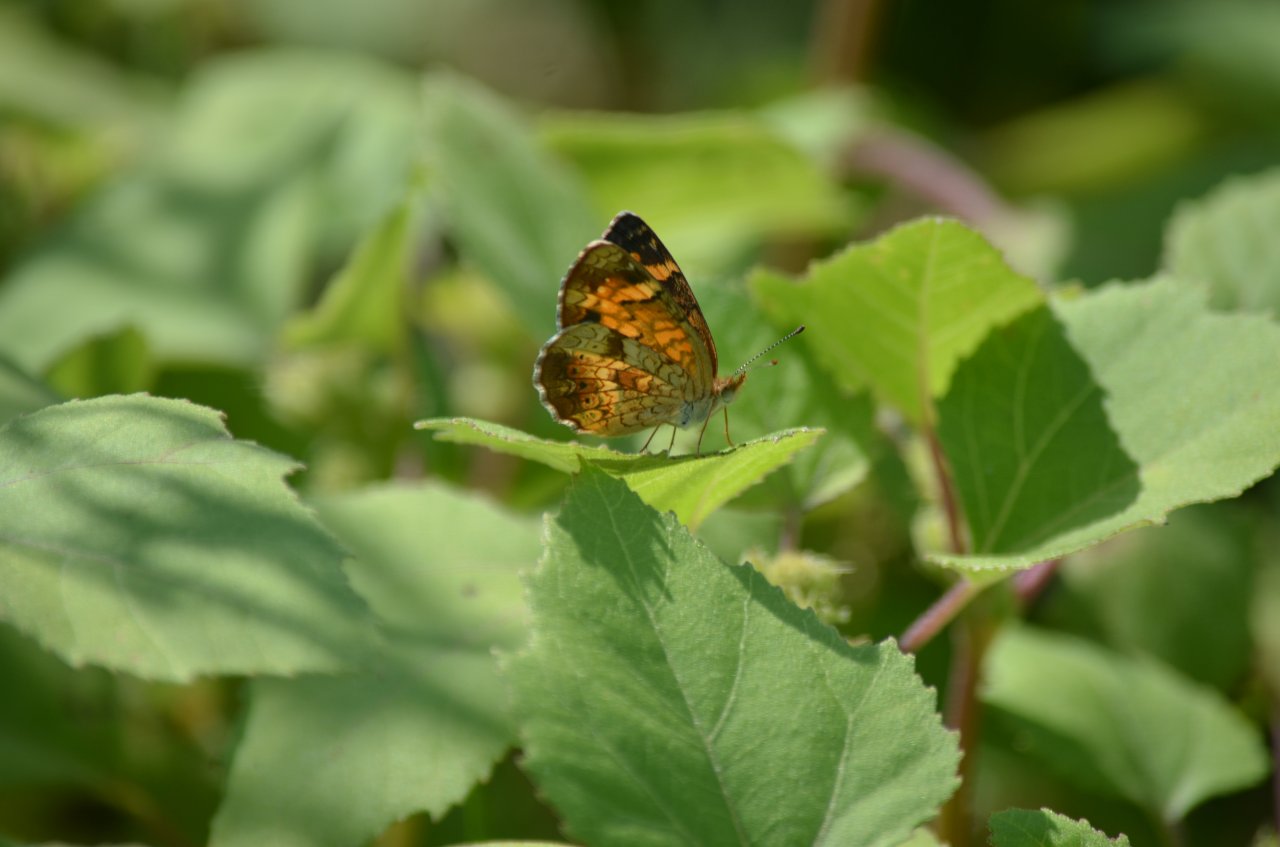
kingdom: Animalia
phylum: Arthropoda
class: Insecta
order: Lepidoptera
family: Nymphalidae
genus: Phyciodes
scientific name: Phyciodes tharos
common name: Northern Crescent
